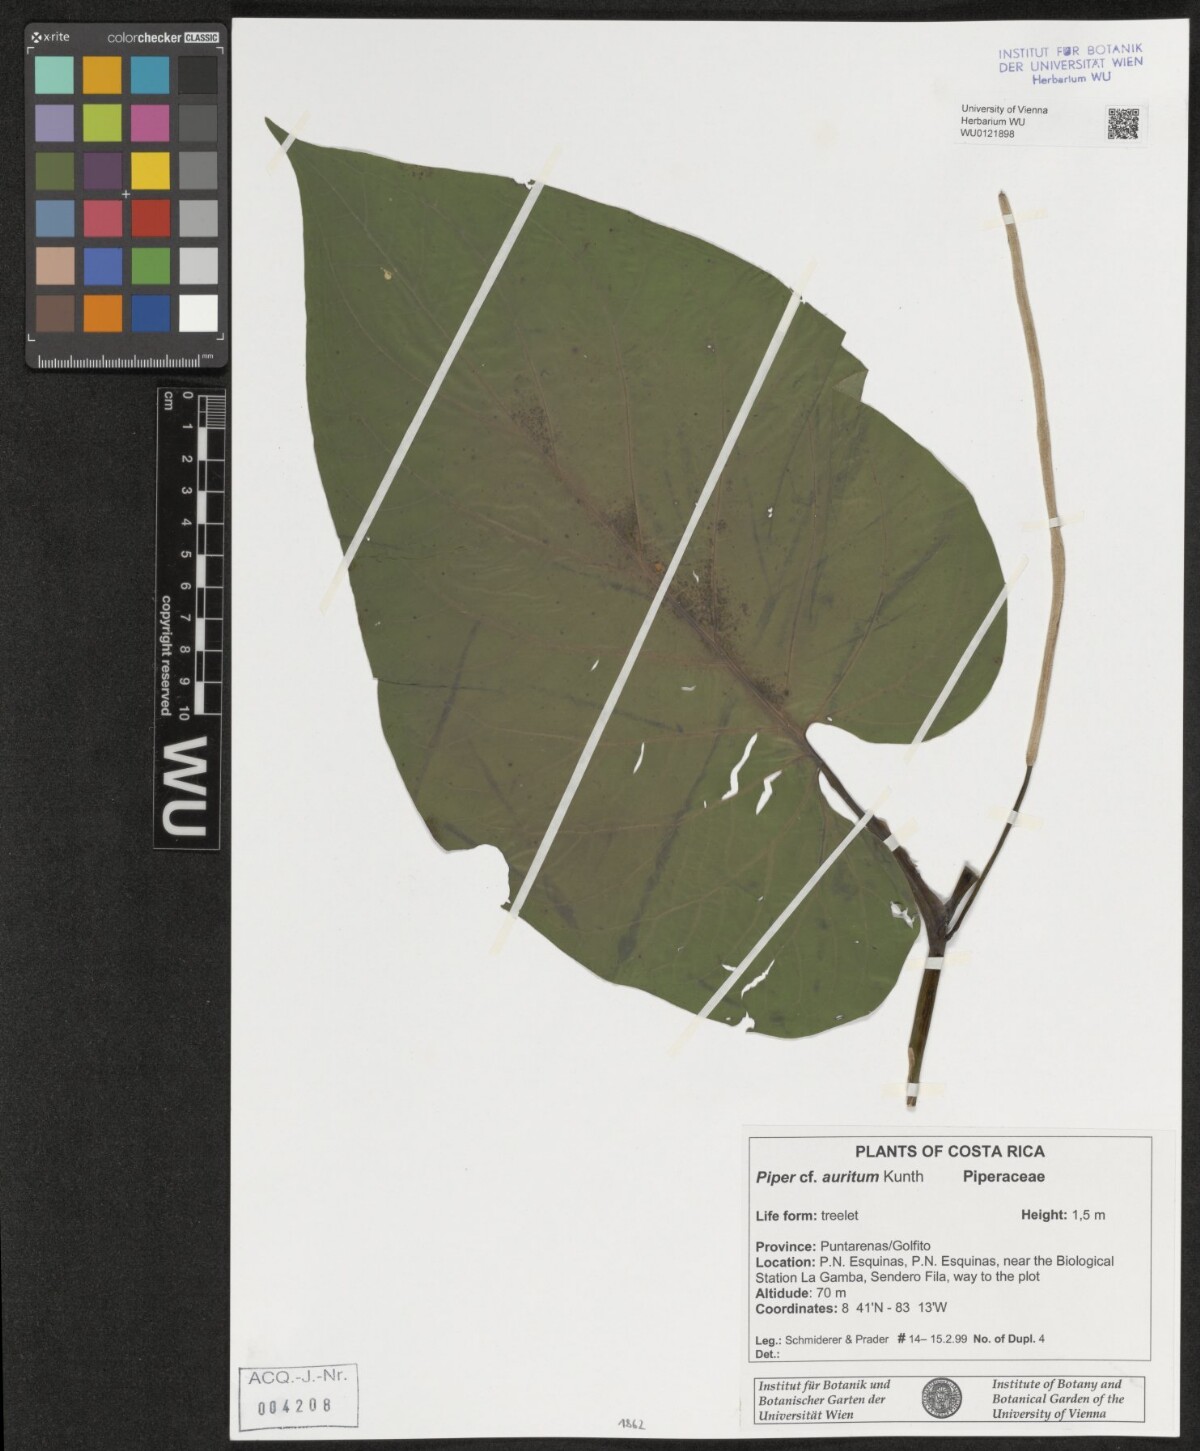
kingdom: Plantae
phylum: Tracheophyta
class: Magnoliopsida
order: Piperales
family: Piperaceae
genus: Piper
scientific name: Piper auritum
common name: Vera cruz pepper
